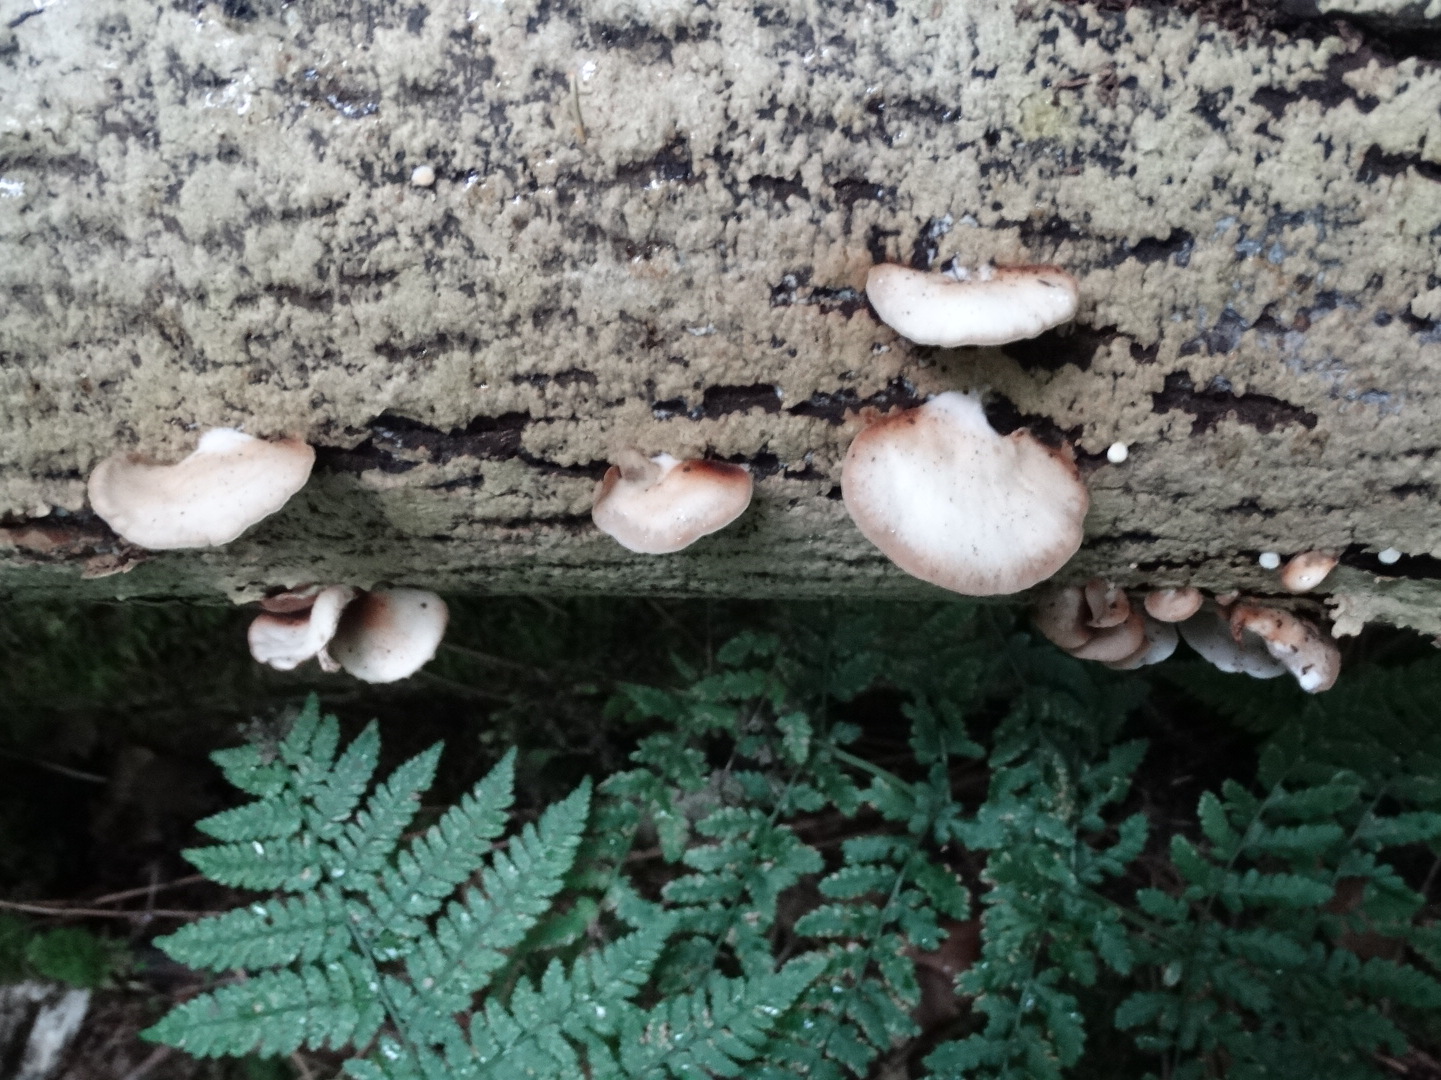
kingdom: Fungi
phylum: Basidiomycota
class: Agaricomycetes
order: Agaricales
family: Crepidotaceae
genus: Crepidotus
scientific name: Crepidotus mollis
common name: blød muslingesvamp
